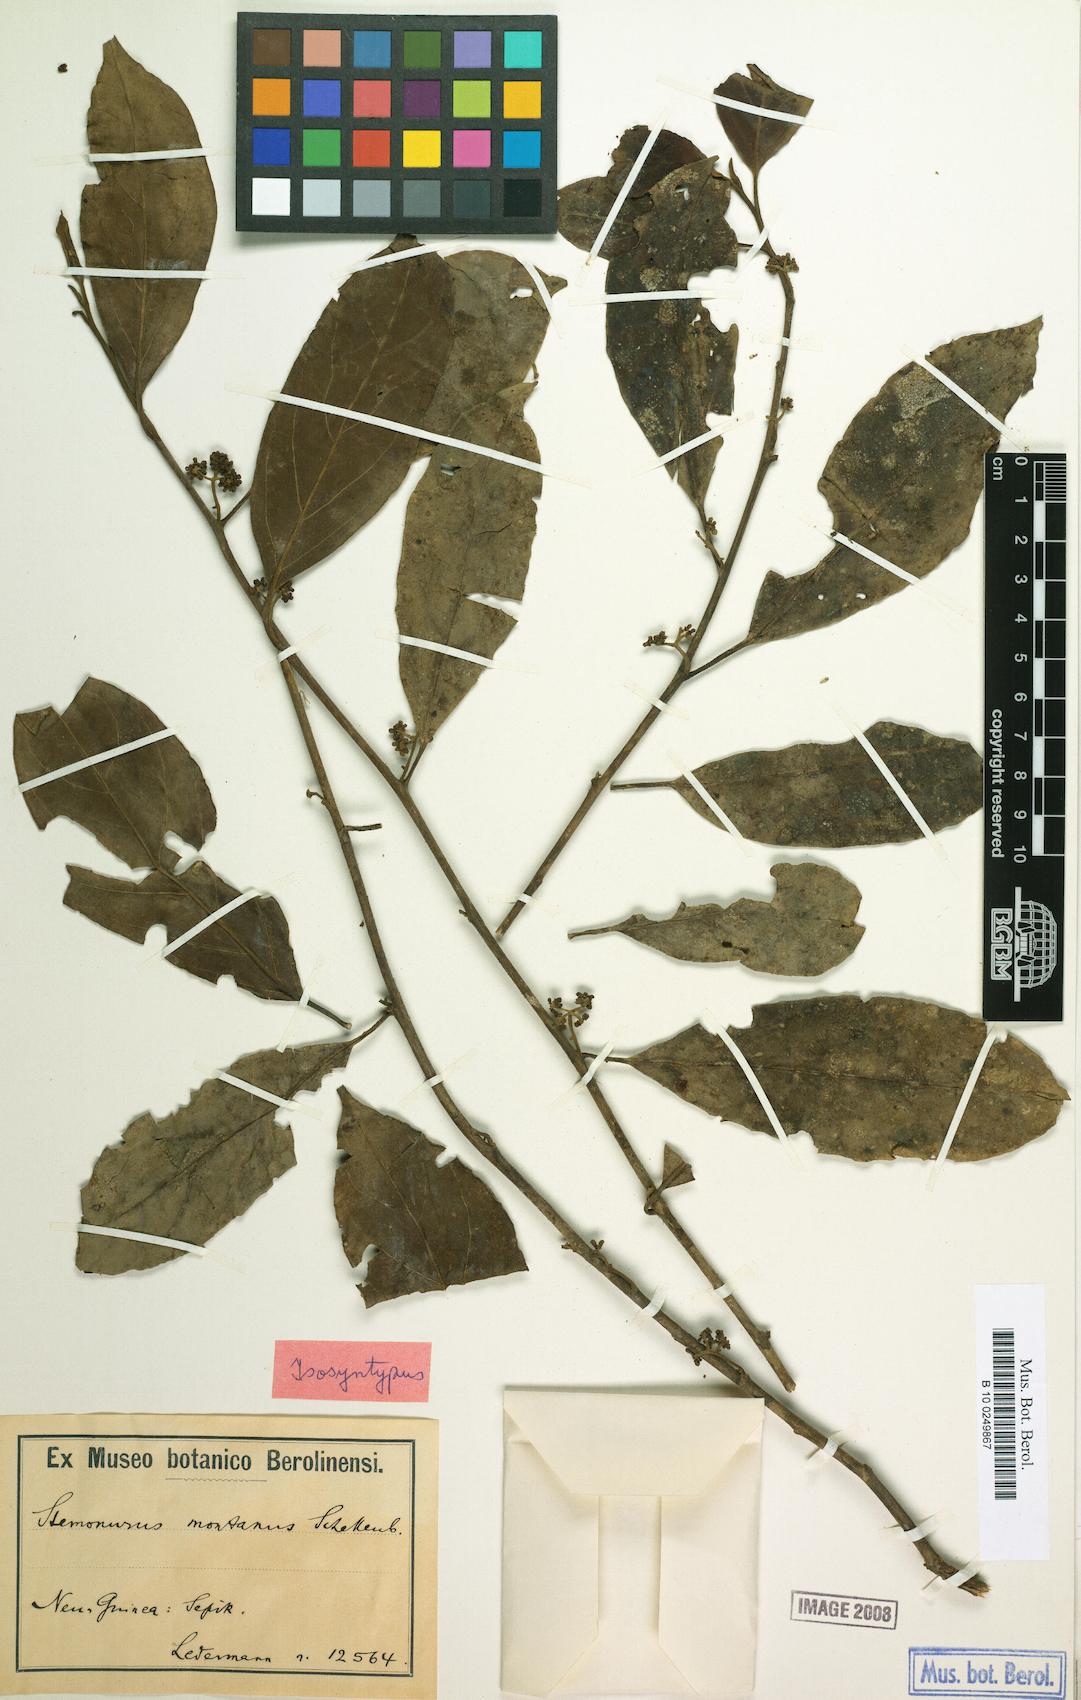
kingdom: Plantae
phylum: Tracheophyta
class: Magnoliopsida
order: Cardiopteridales
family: Stemonuraceae
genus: Gomphandra
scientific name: Gomphandra montana
